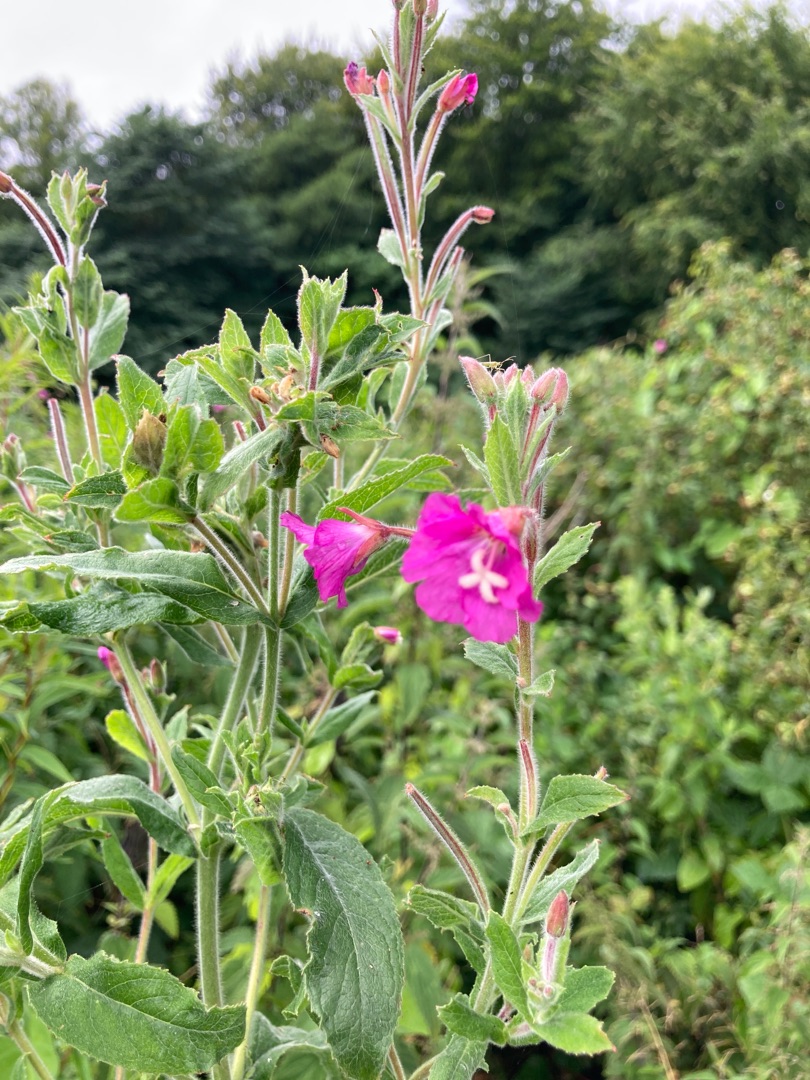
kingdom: Plantae
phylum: Tracheophyta
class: Magnoliopsida
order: Myrtales
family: Onagraceae
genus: Epilobium
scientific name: Epilobium hirsutum
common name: Lådden dueurt
